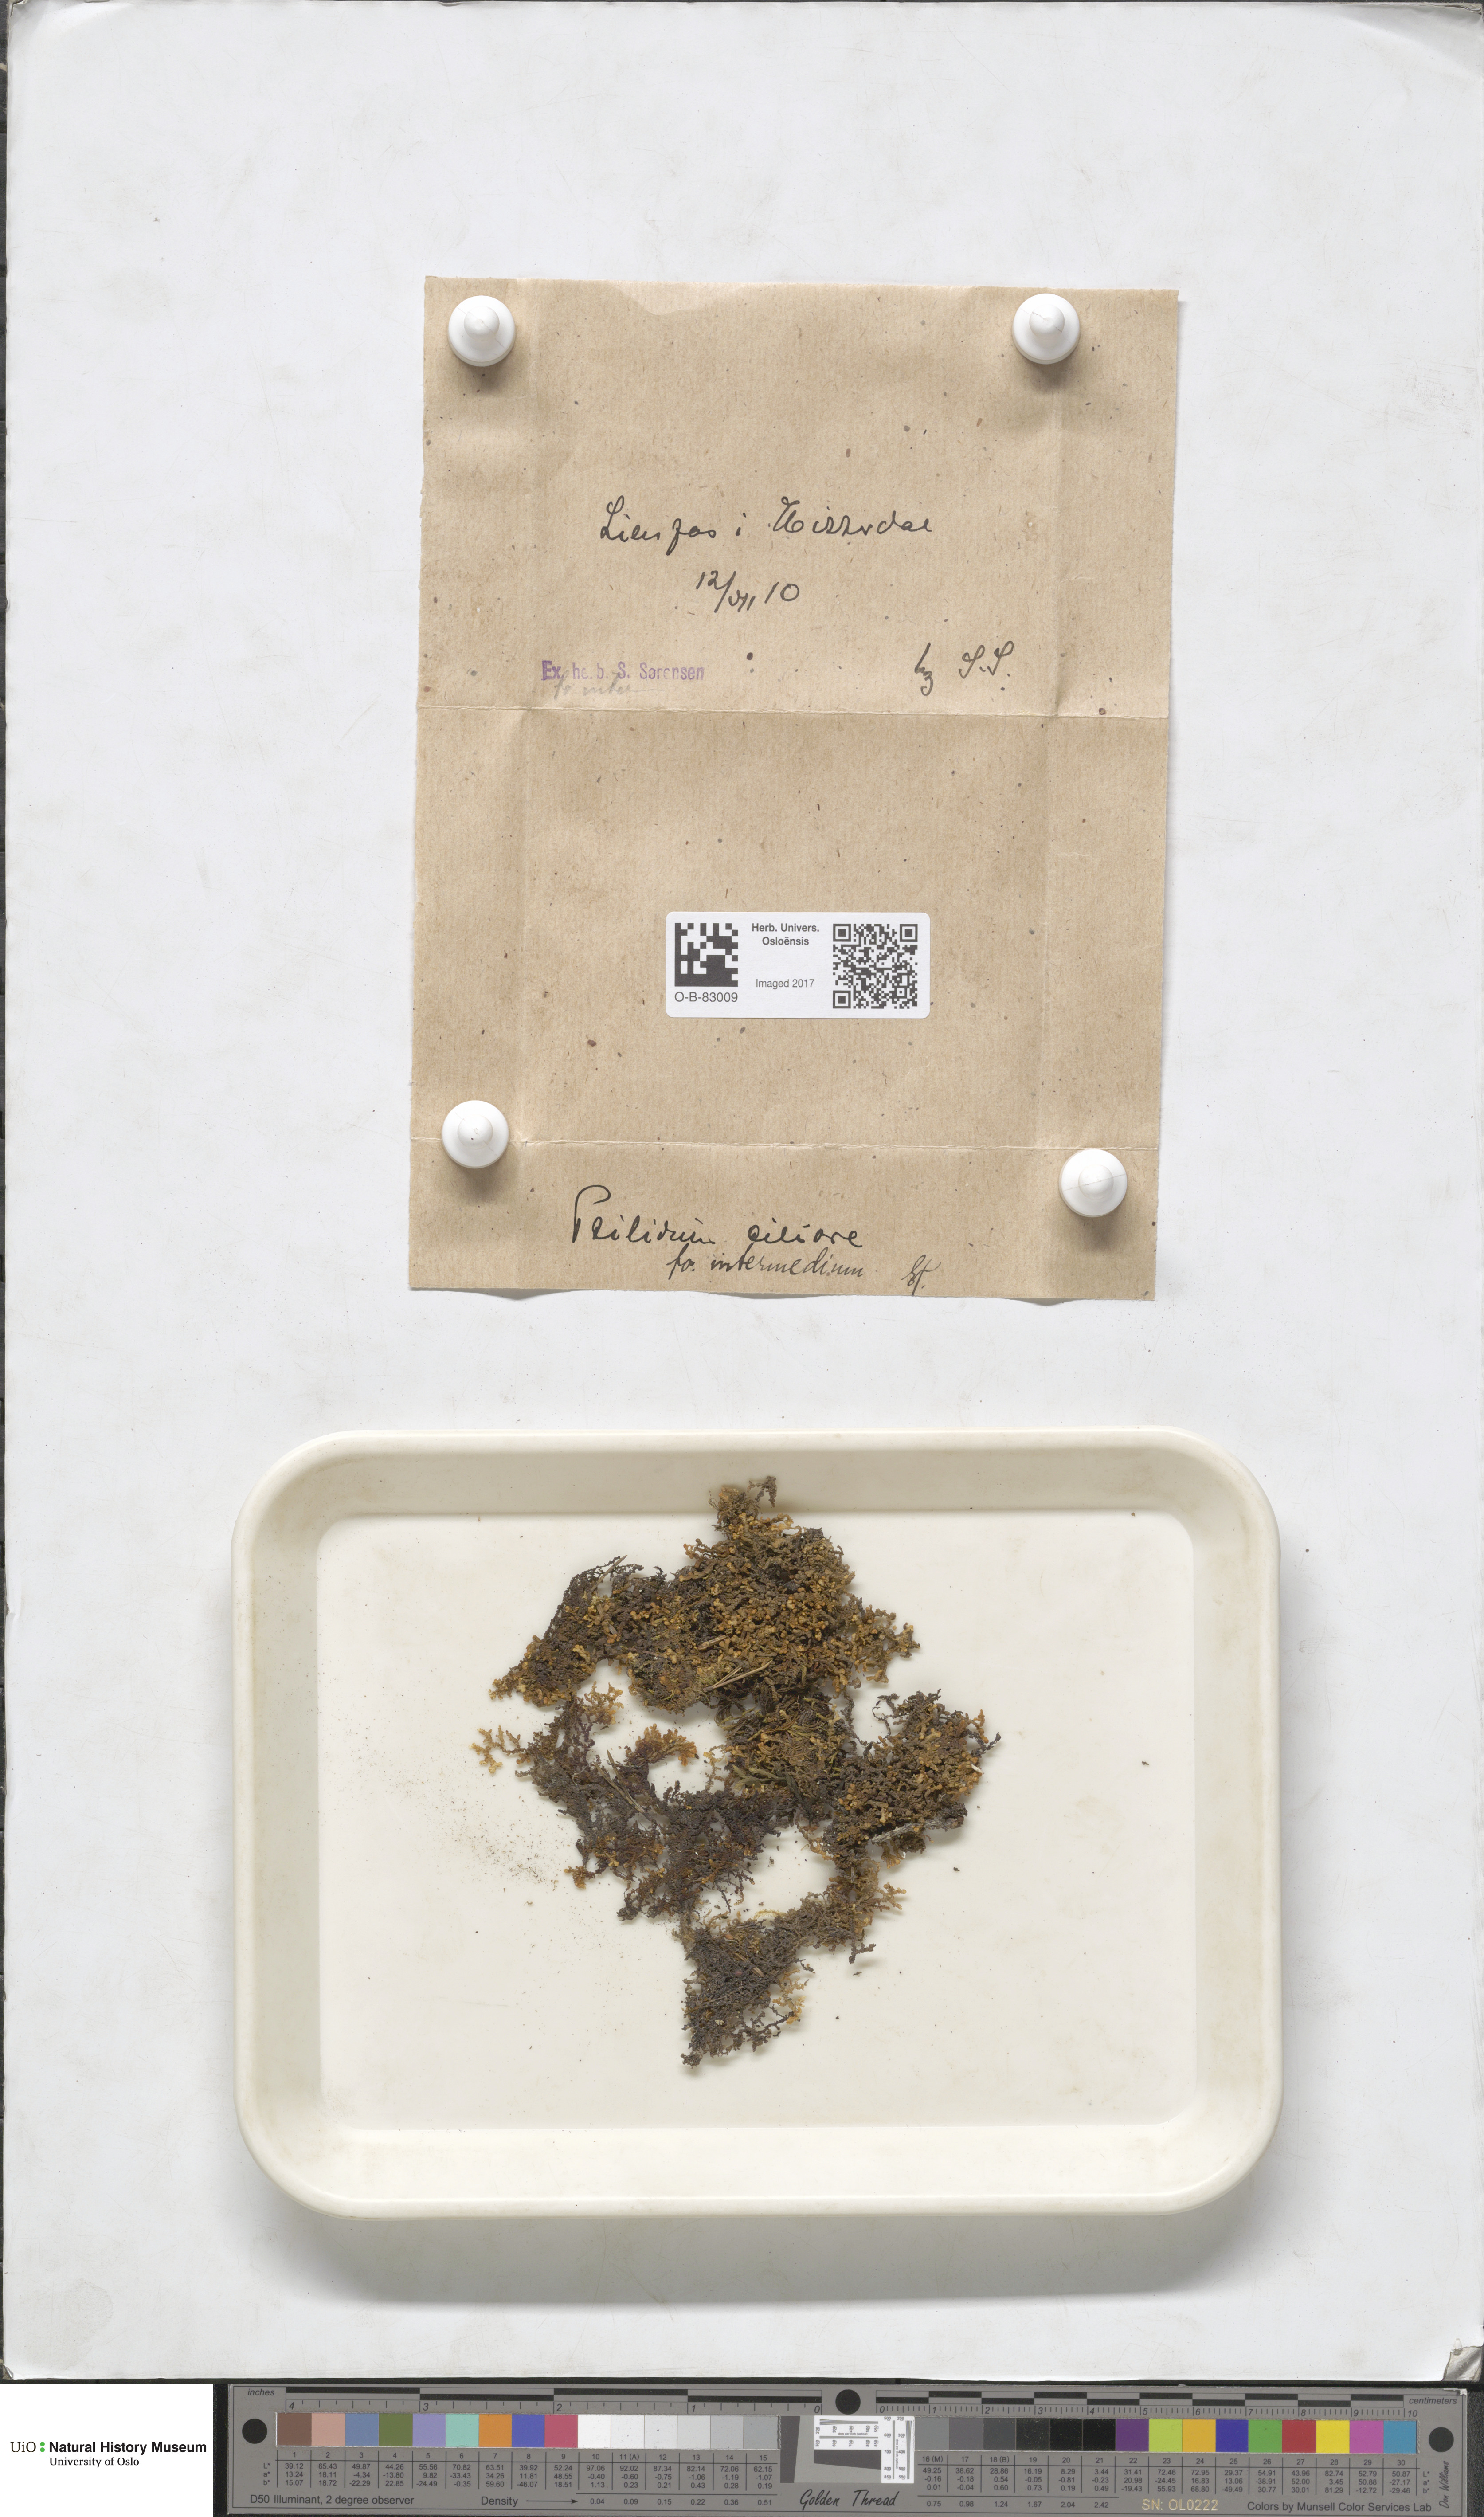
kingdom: Plantae
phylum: Marchantiophyta
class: Jungermanniopsida
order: Ptilidiales
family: Ptilidiaceae
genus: Ptilidium
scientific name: Ptilidium ciliare
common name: Ciliate fringewort
